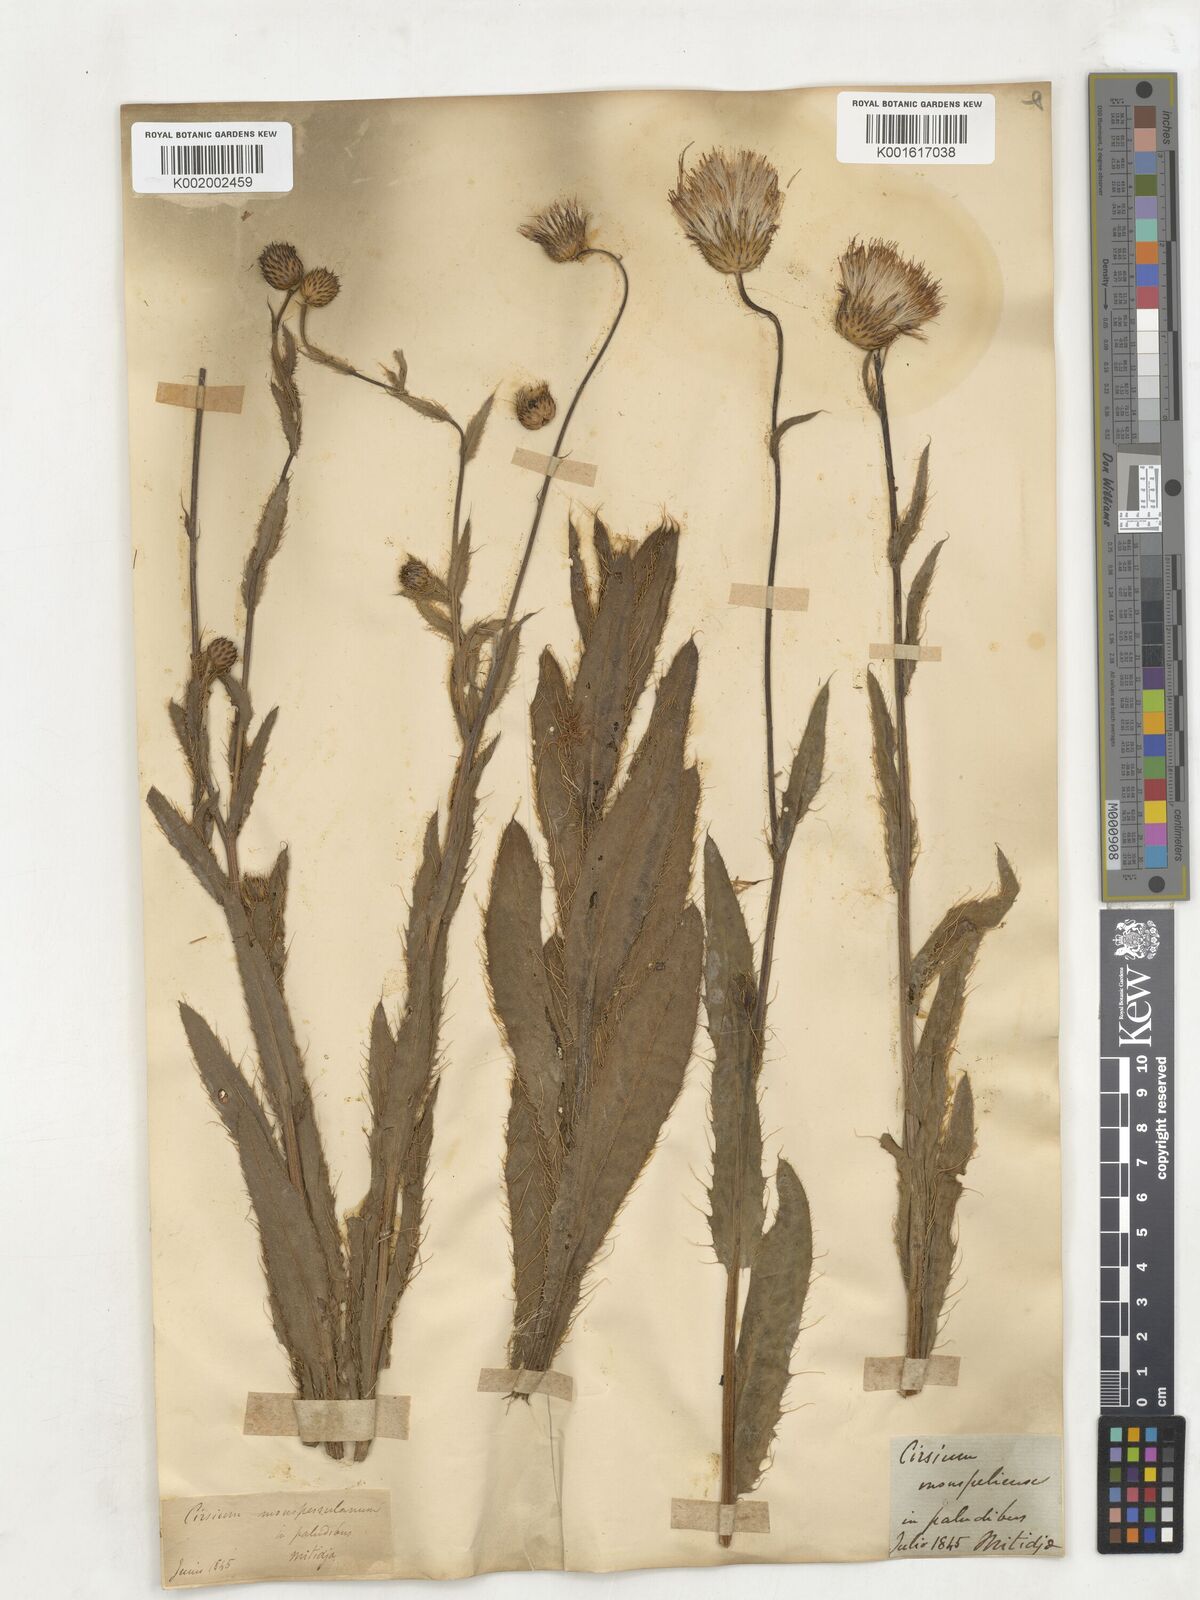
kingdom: Plantae
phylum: Tracheophyta
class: Magnoliopsida
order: Asterales
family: Asteraceae
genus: Cirsium
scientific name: Cirsium monspessulanum
